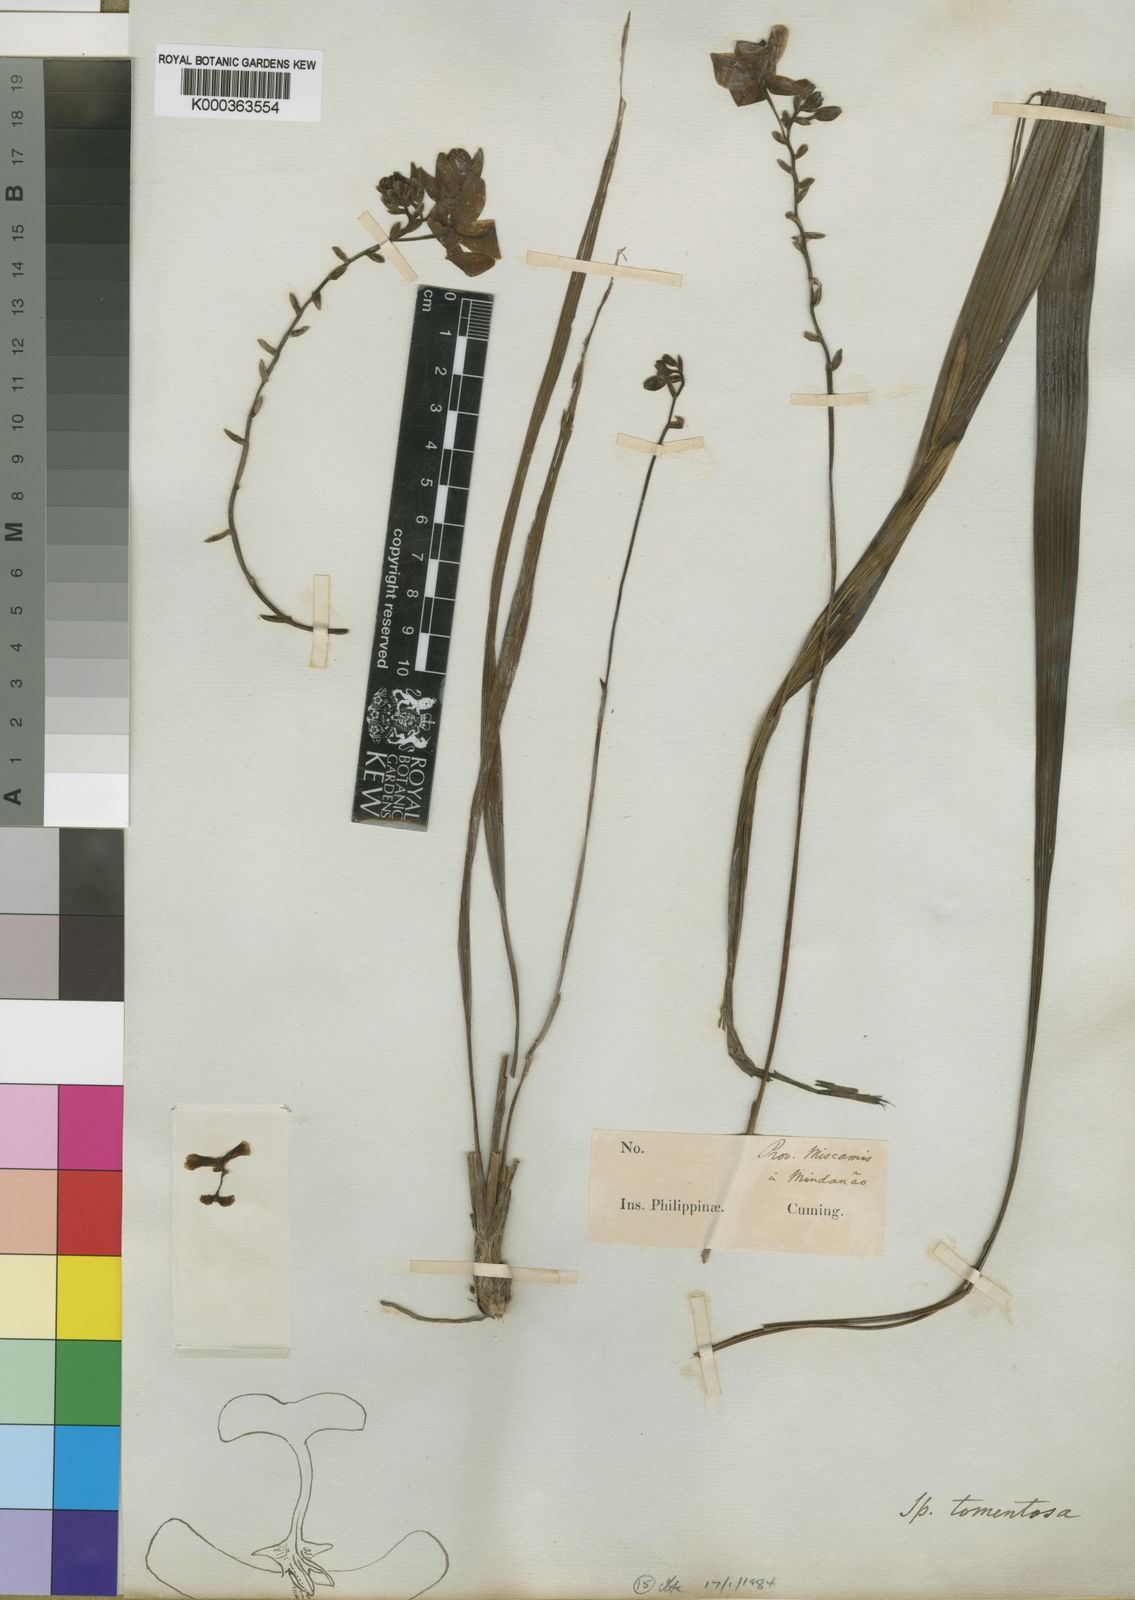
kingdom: Plantae
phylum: Tracheophyta
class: Liliopsida
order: Asparagales
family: Orchidaceae
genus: Spathoglottis
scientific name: Spathoglottis tomentosa
